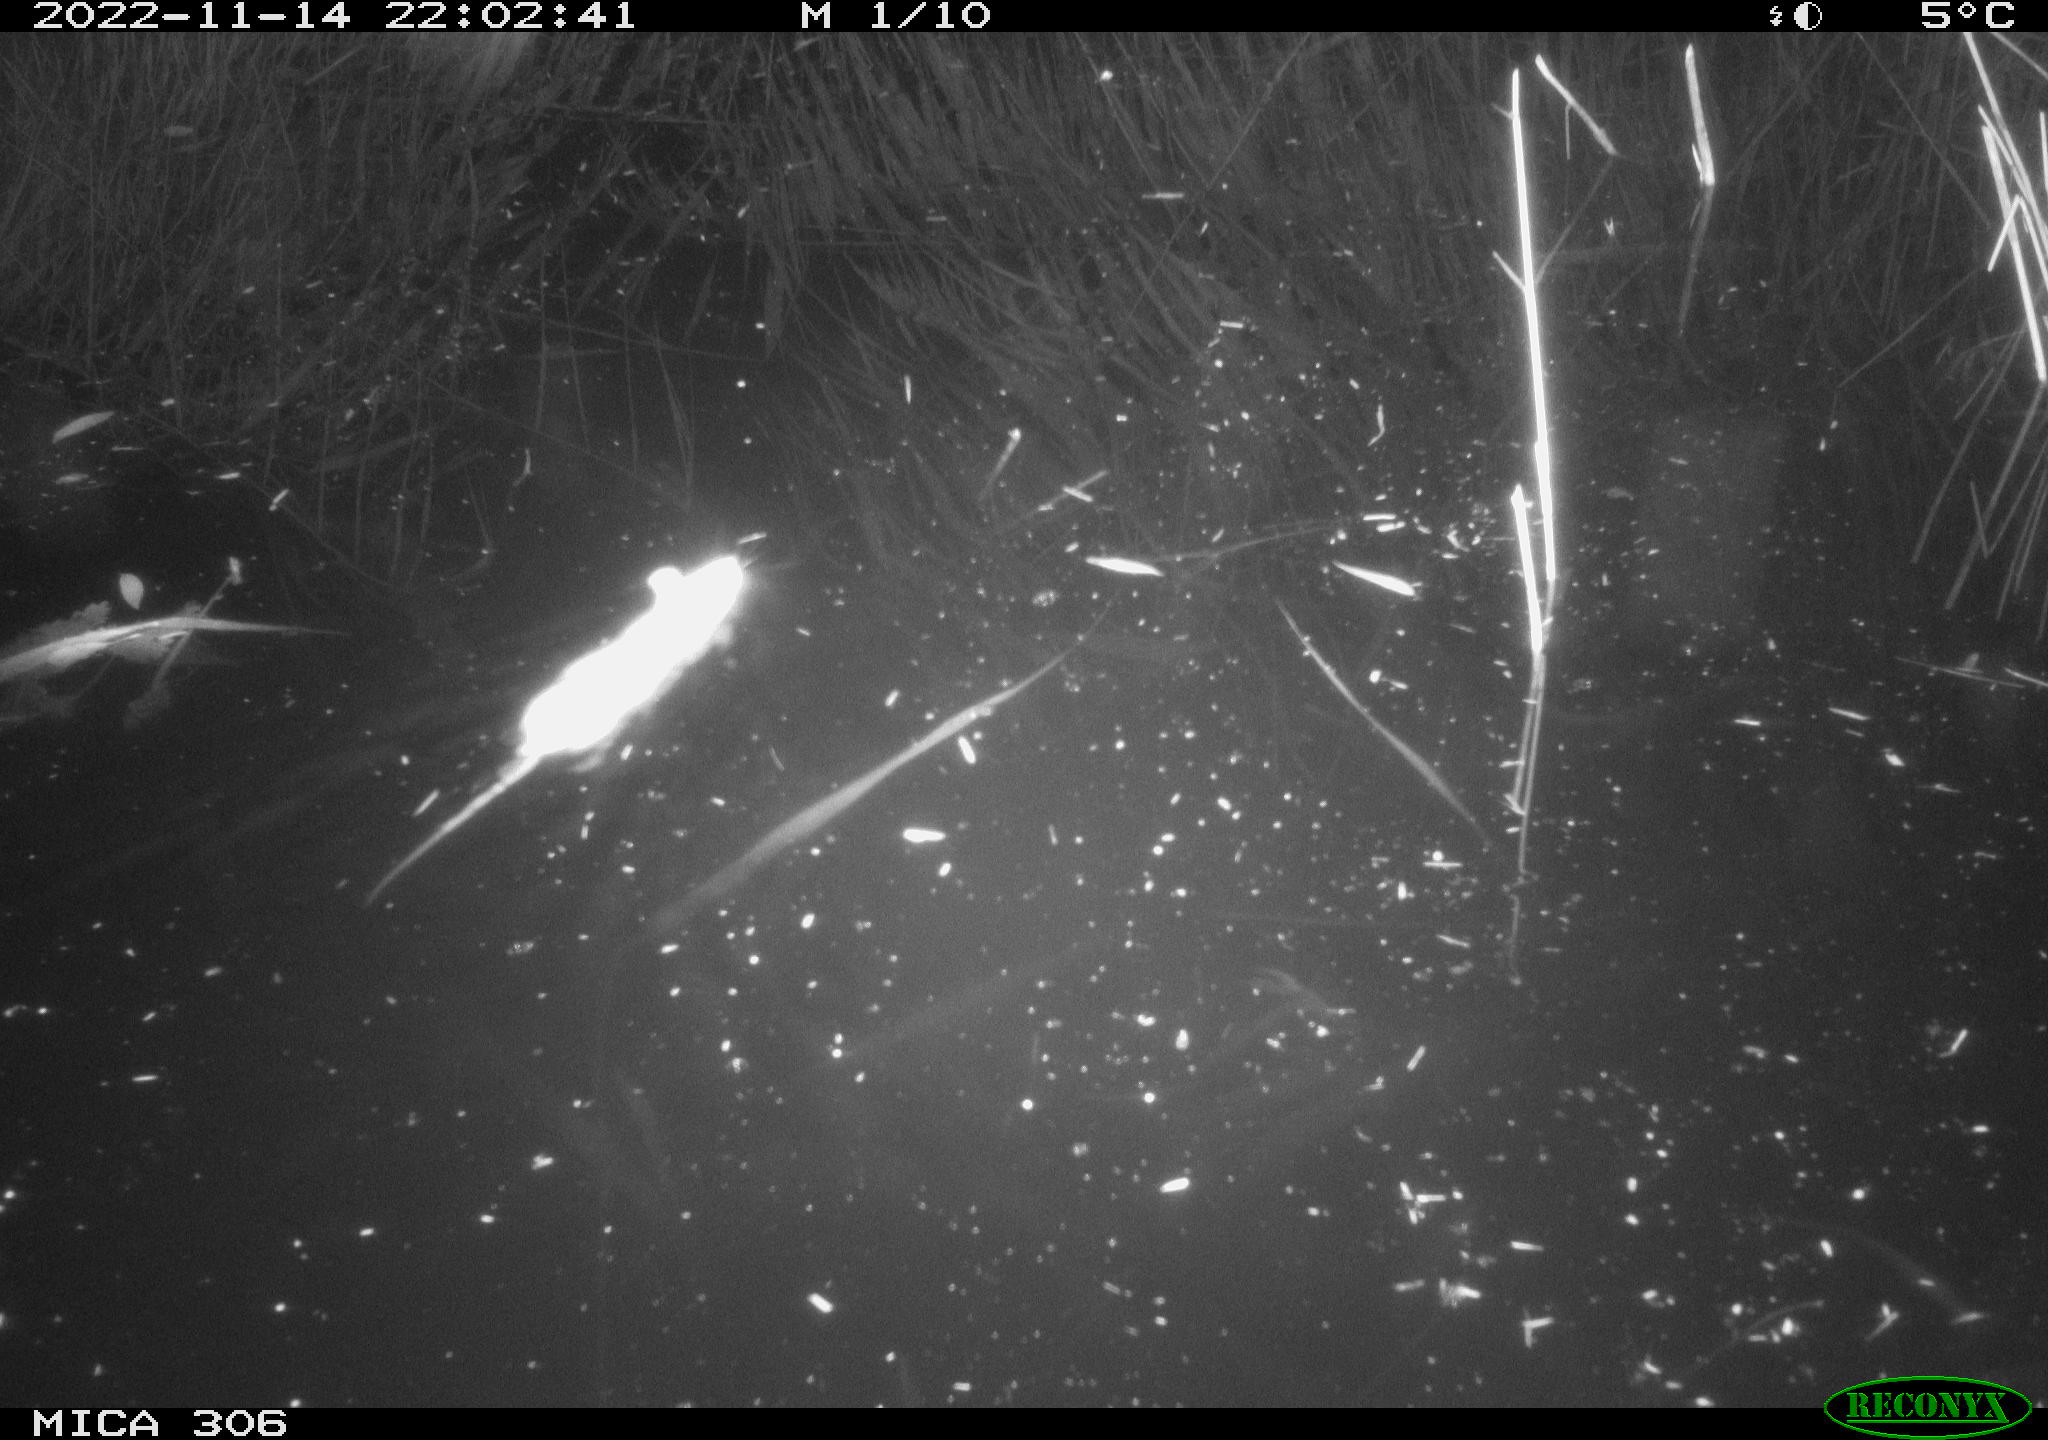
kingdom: Animalia
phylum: Chordata
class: Mammalia
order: Rodentia
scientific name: Rodentia
